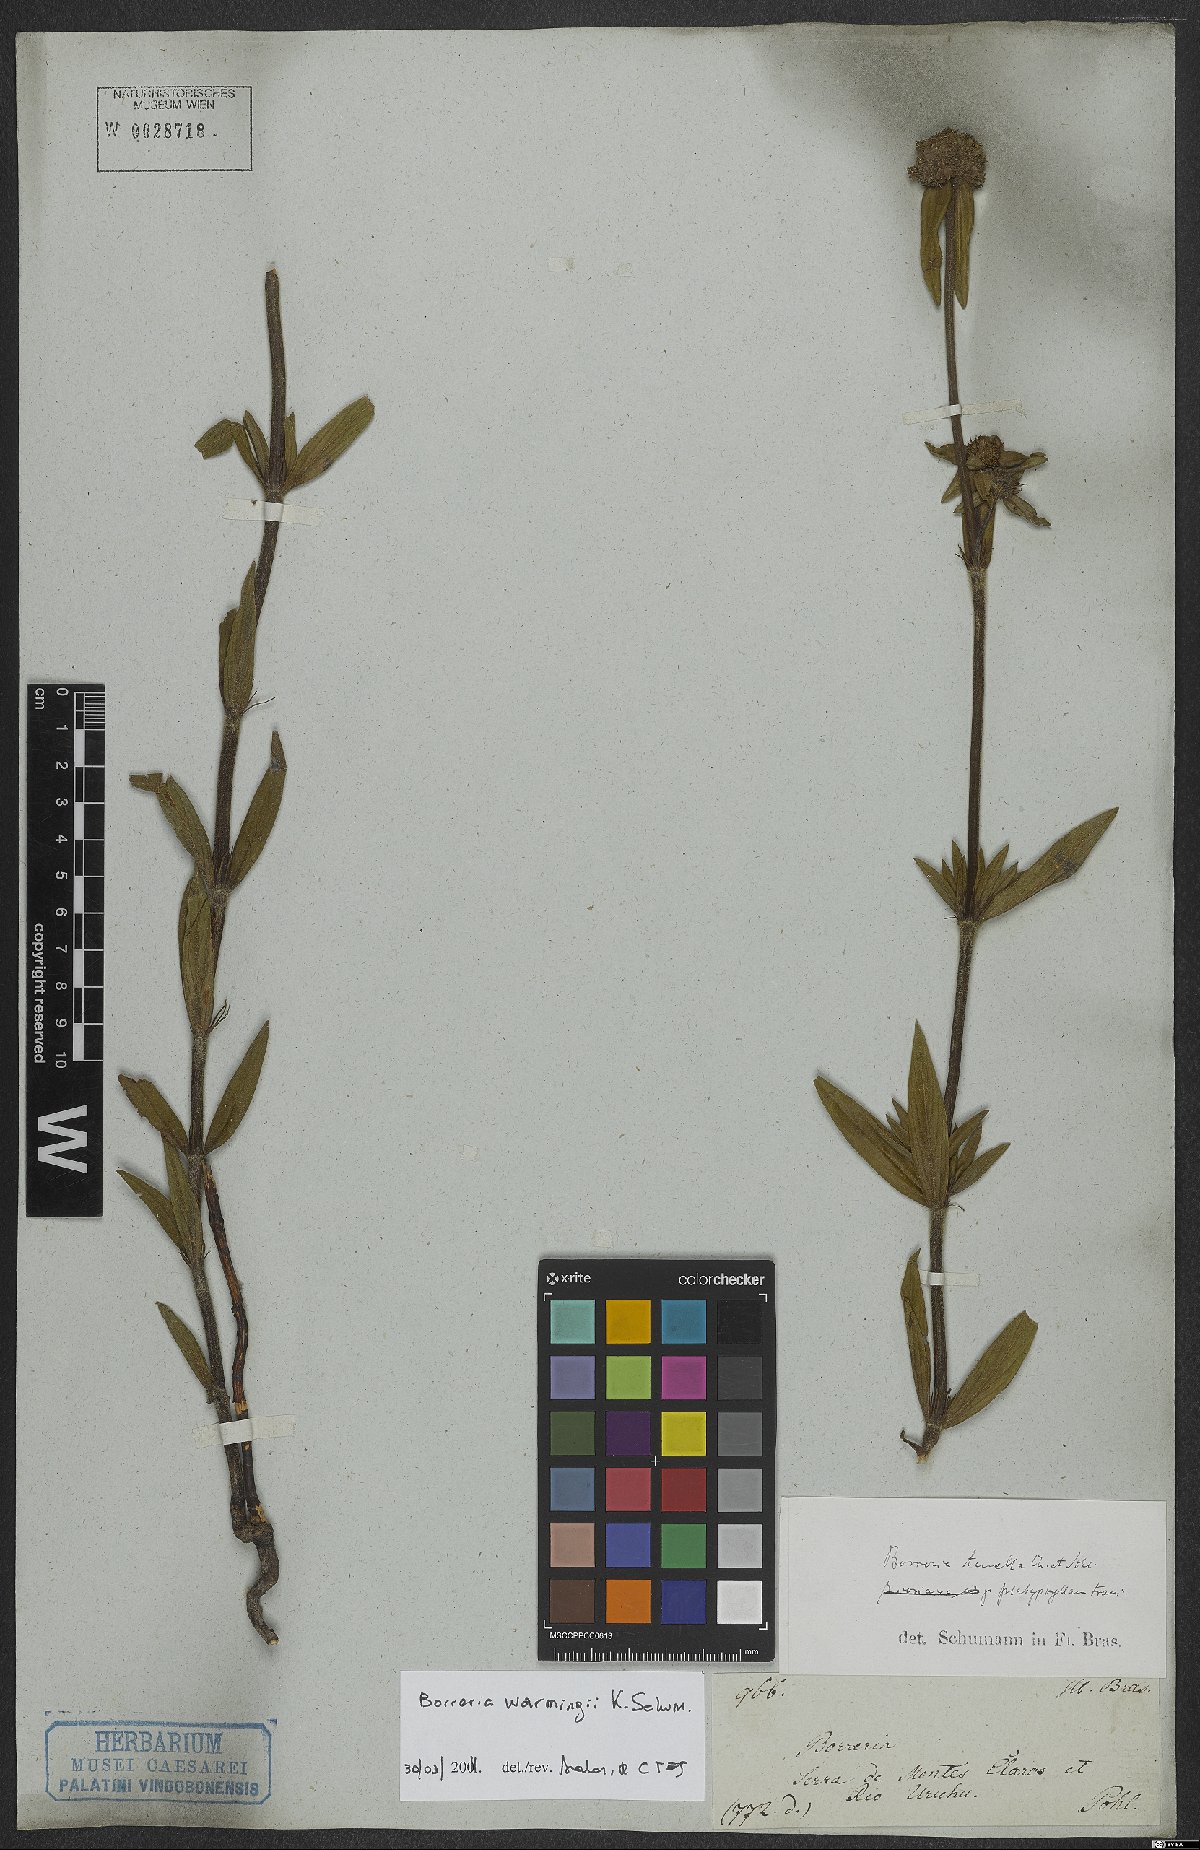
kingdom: Plantae
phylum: Tracheophyta
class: Magnoliopsida
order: Gentianales
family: Rubiaceae
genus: Spermacoce
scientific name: Spermacoce warmingii
